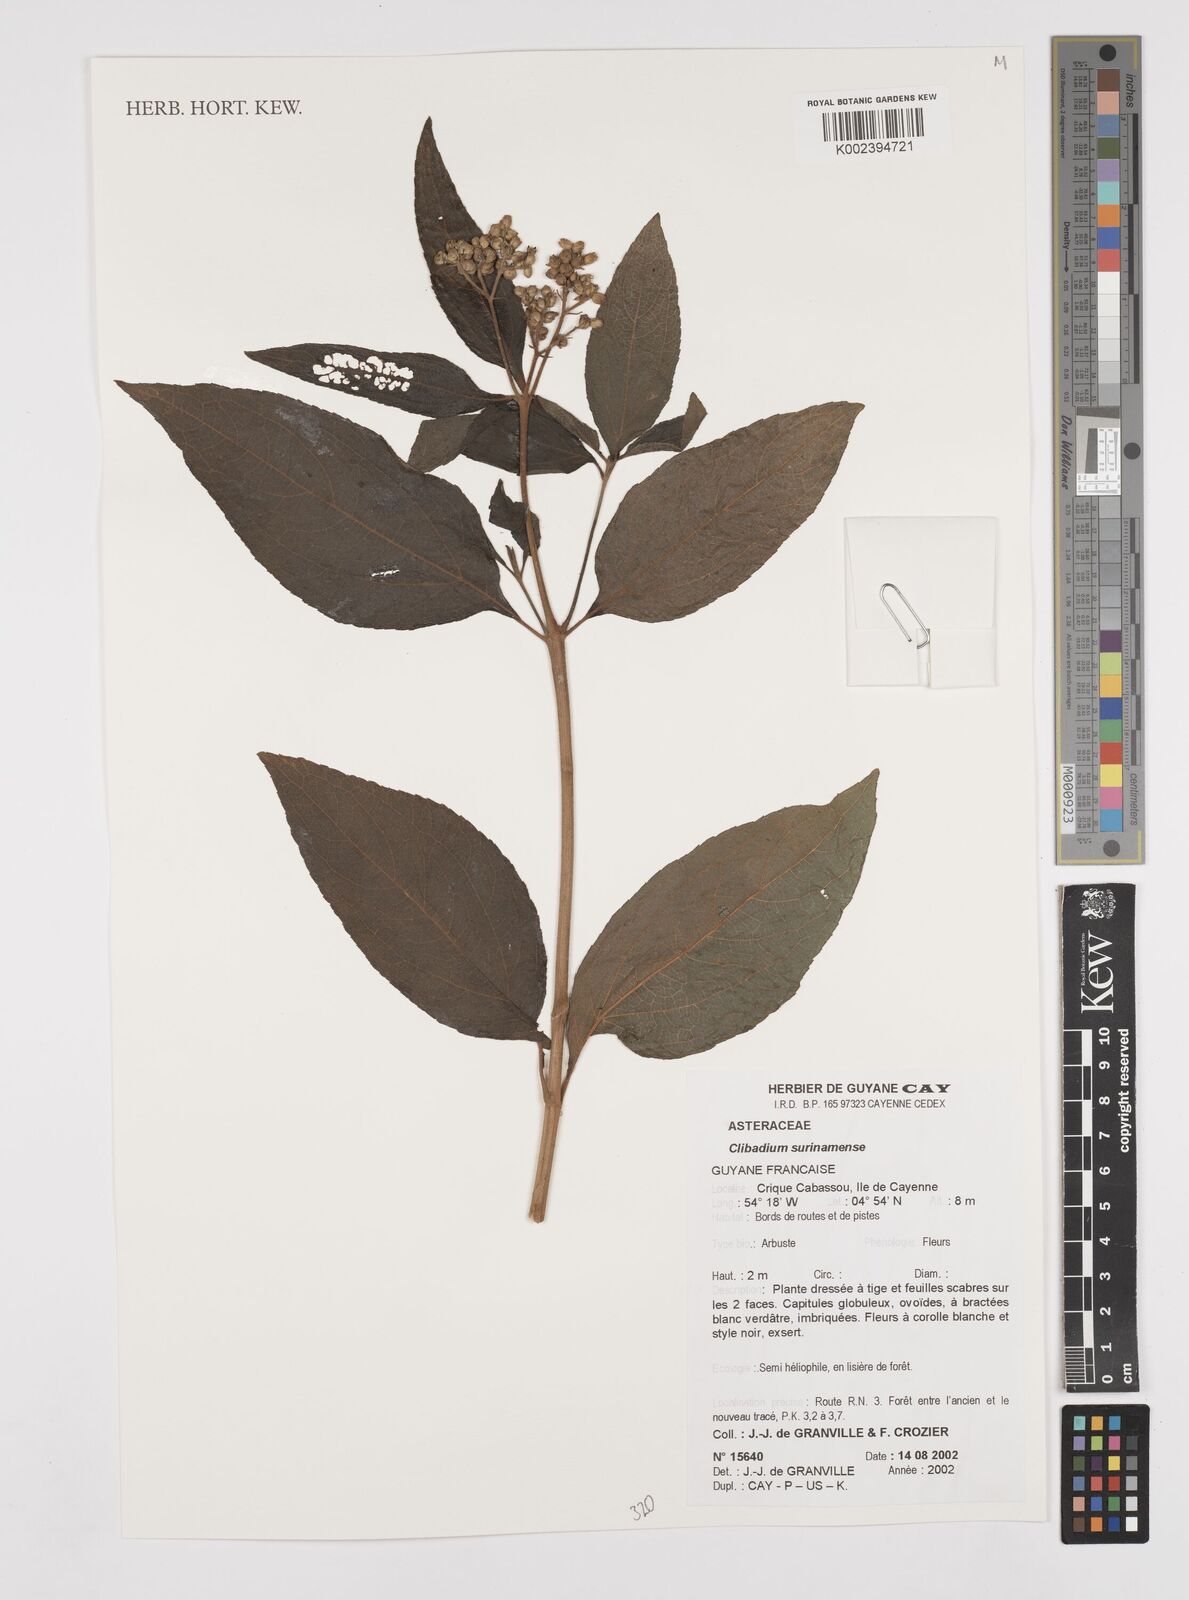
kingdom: Plantae
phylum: Tracheophyta
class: Magnoliopsida
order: Asterales
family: Asteraceae
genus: Clibadium
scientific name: Clibadium surinamense
